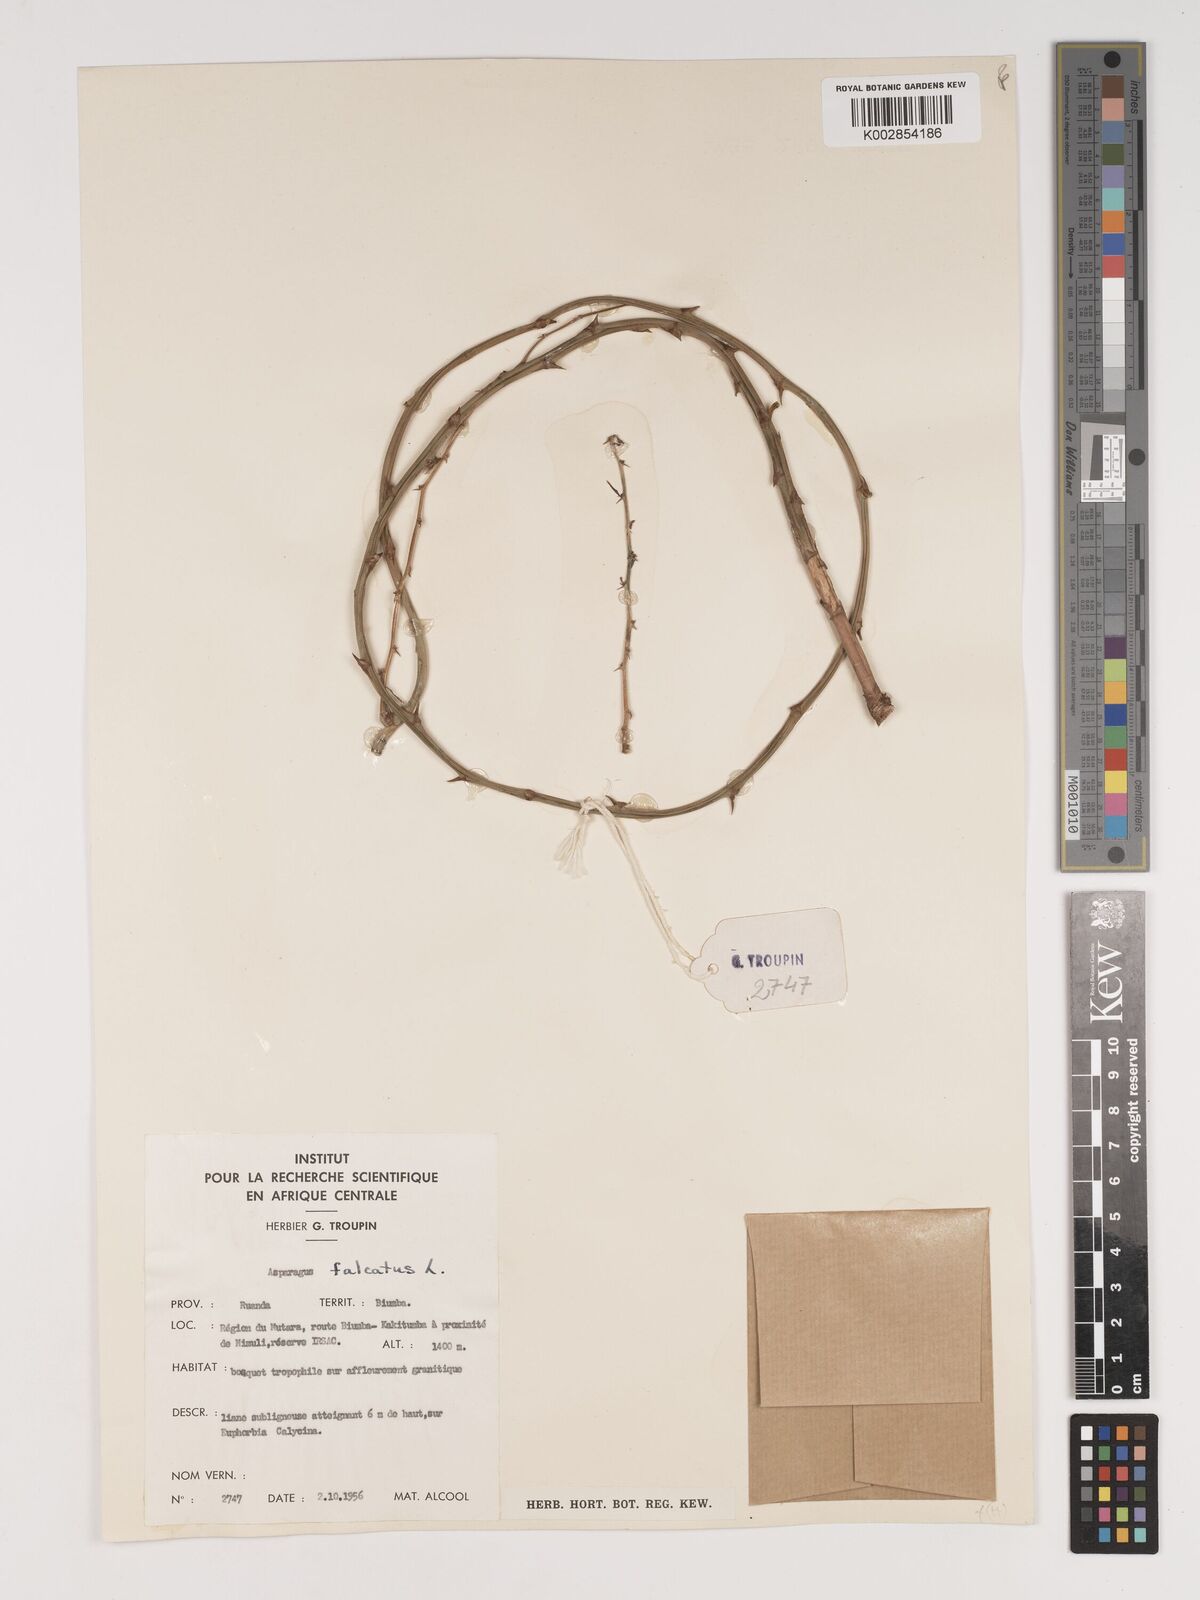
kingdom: Plantae
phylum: Tracheophyta
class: Liliopsida
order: Asparagales
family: Asparagaceae
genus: Asparagus
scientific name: Asparagus falcatus
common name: Asparagus
